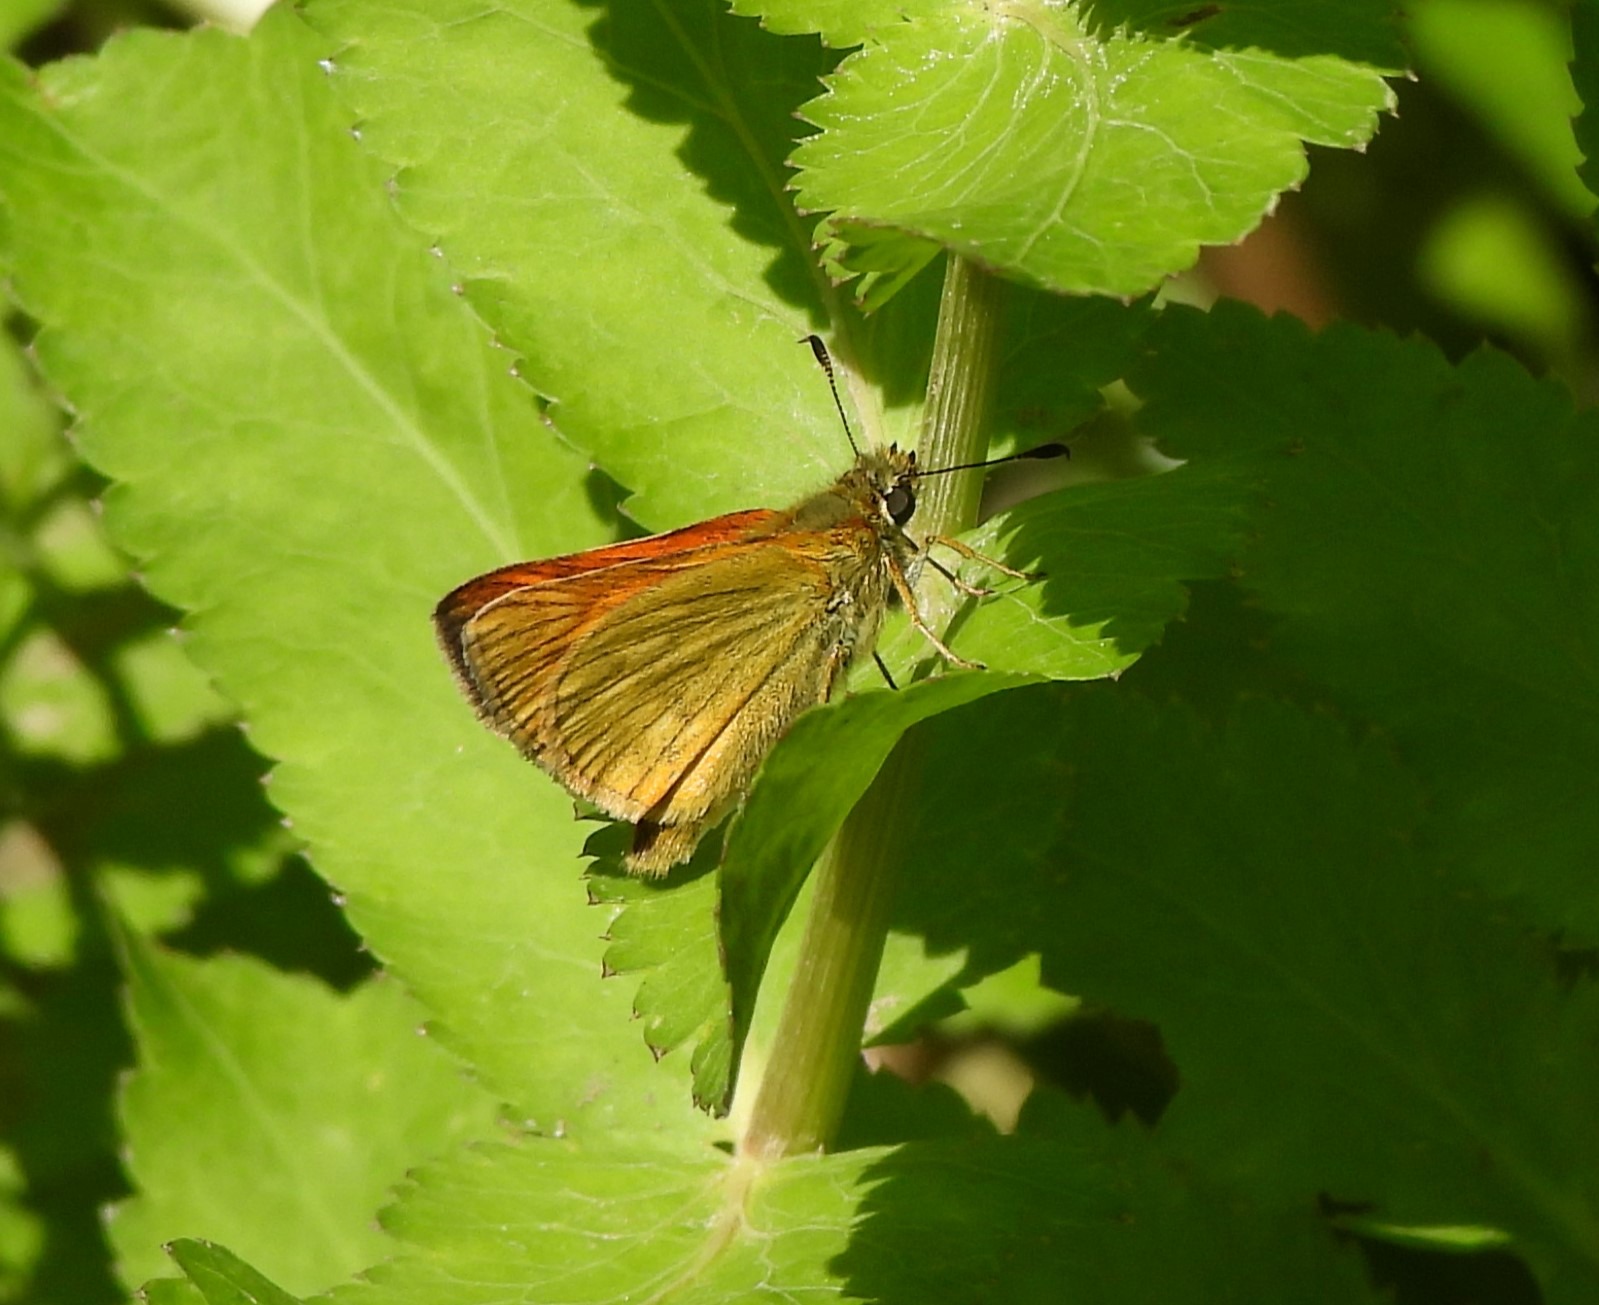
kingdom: Animalia
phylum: Arthropoda
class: Insecta
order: Lepidoptera
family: Hesperiidae
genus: Ochlodes
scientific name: Ochlodes venata
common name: Stor bredpande
